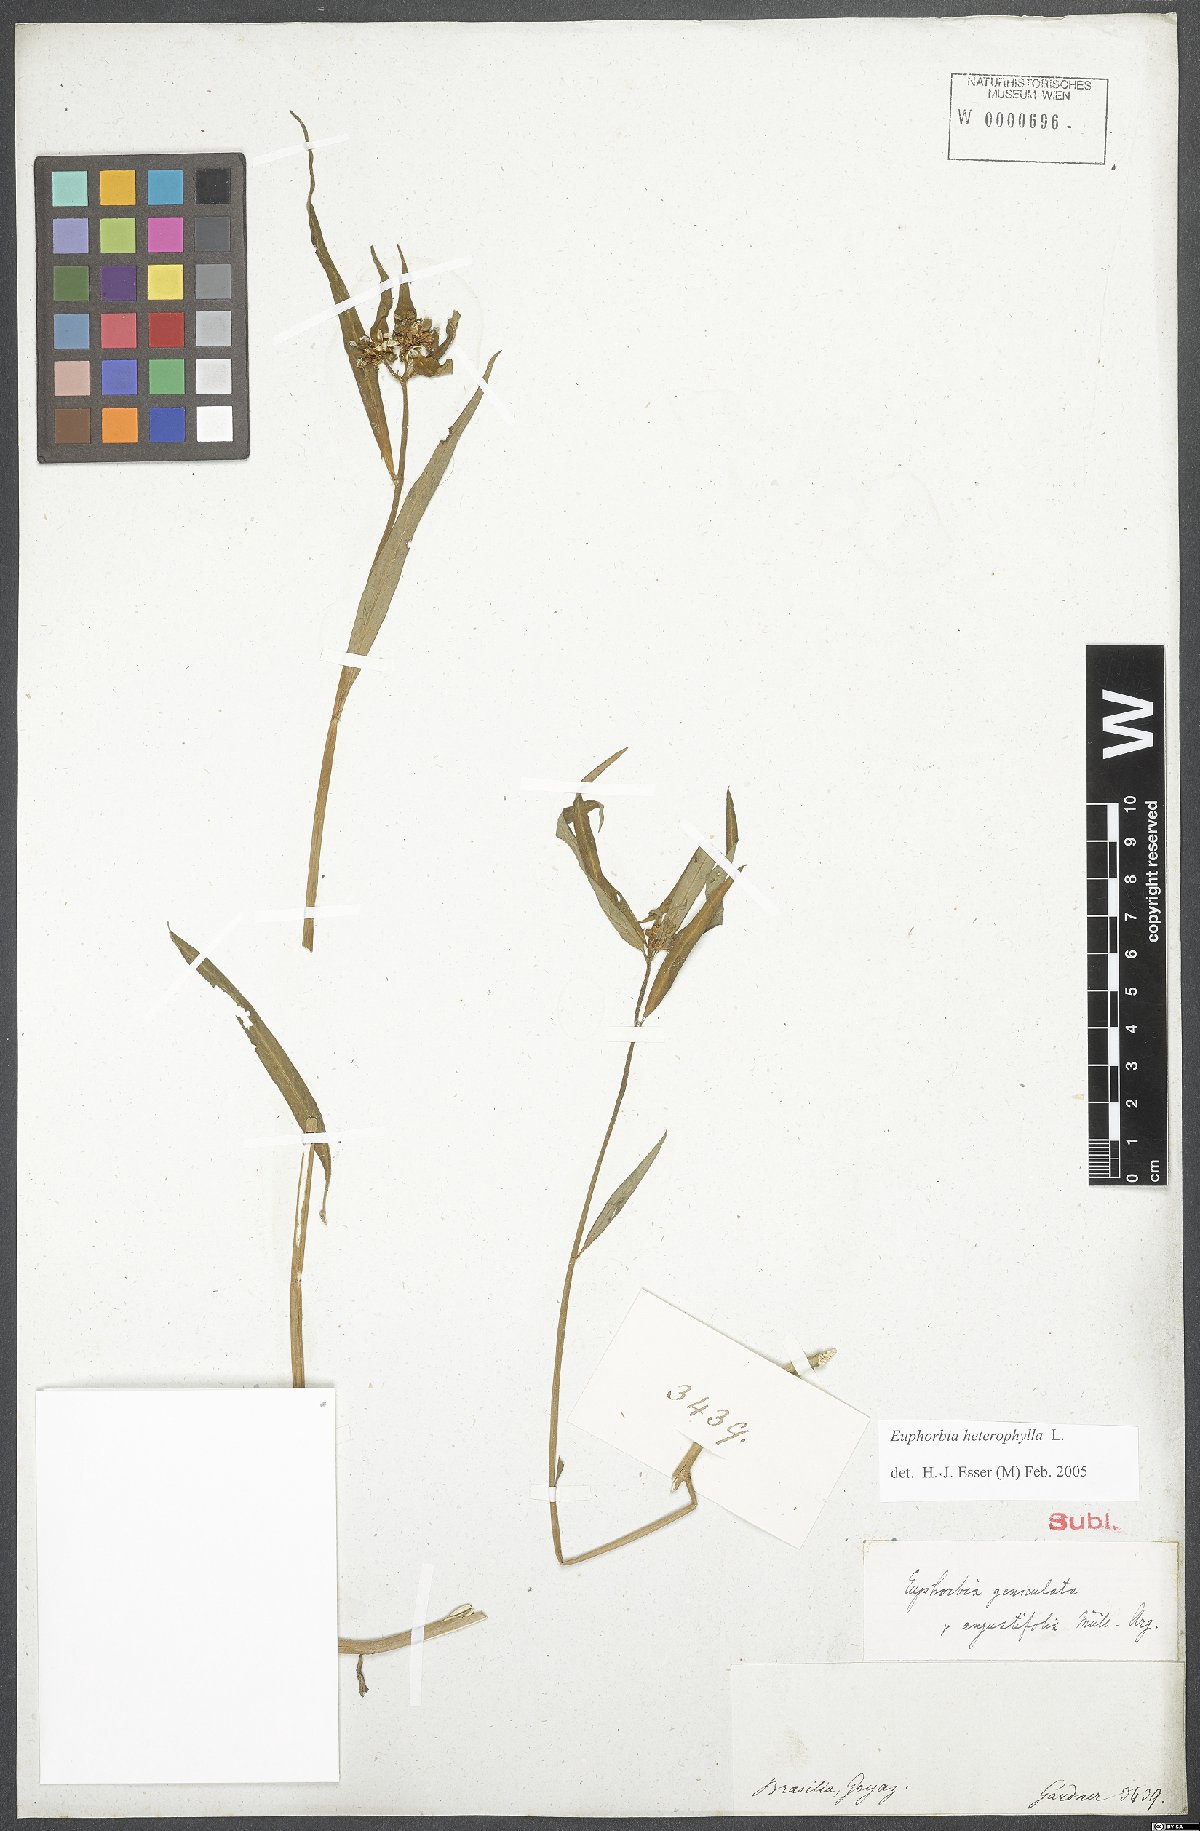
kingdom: Plantae
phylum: Tracheophyta
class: Magnoliopsida
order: Malpighiales
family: Euphorbiaceae
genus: Euphorbia
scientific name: Euphorbia heterophylla
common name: Mexican fireplant
